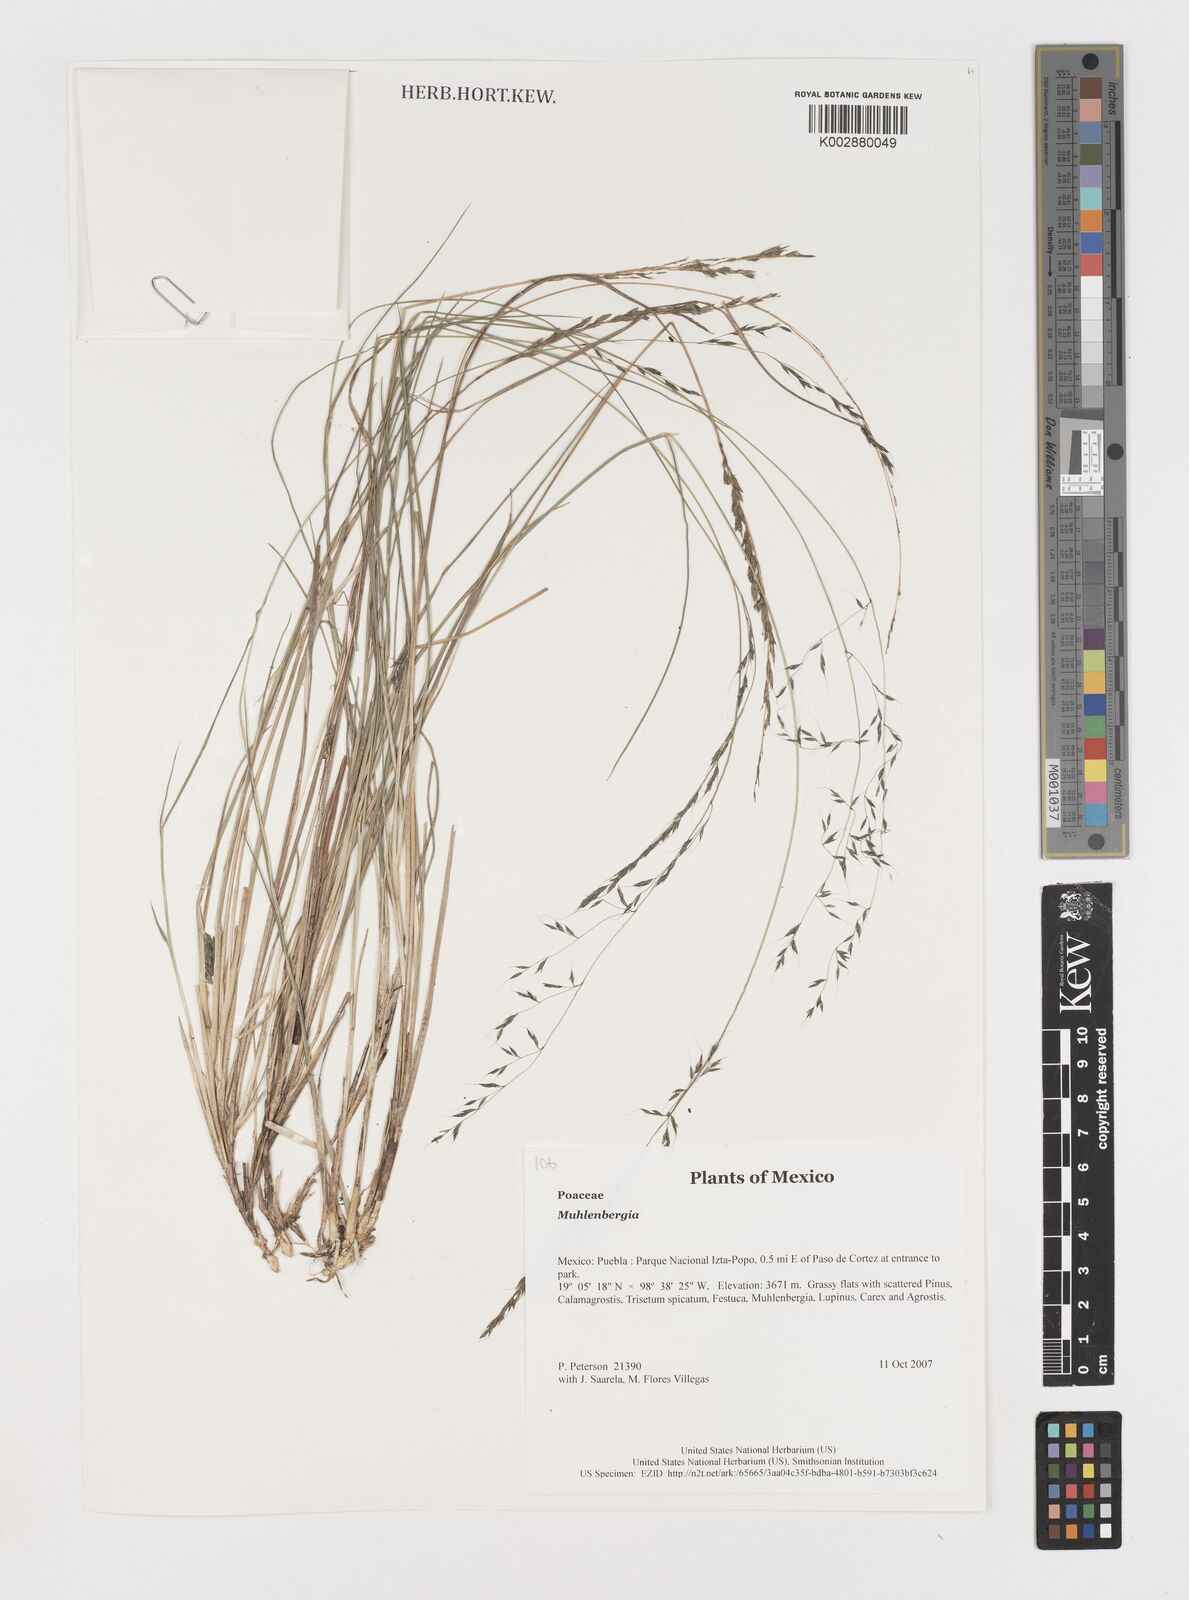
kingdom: Plantae
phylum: Tracheophyta
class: Liliopsida
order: Poales
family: Poaceae
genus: Muhlenbergia
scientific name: Muhlenbergia
